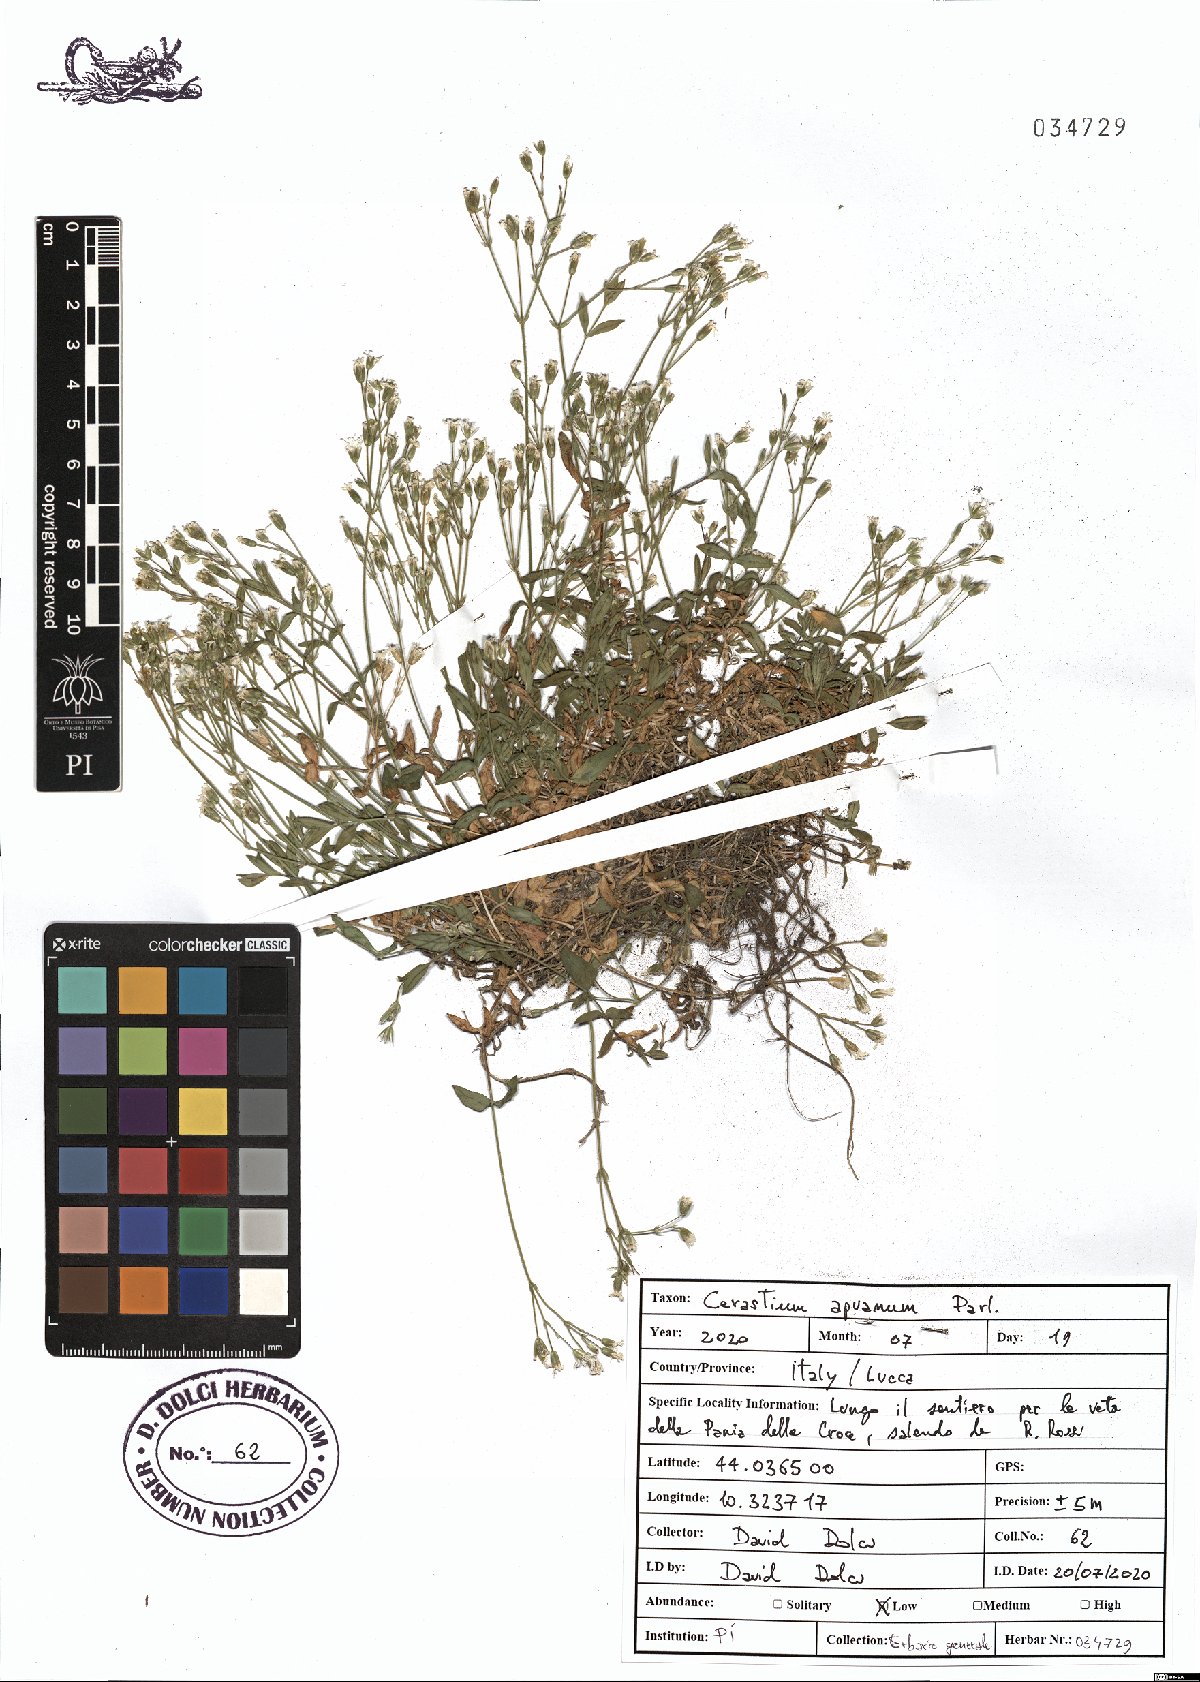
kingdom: Plantae
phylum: Tracheophyta
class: Magnoliopsida
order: Caryophyllales
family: Caryophyllaceae
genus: Cerastium
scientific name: Cerastium scaranii
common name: Italian mouse-ear
